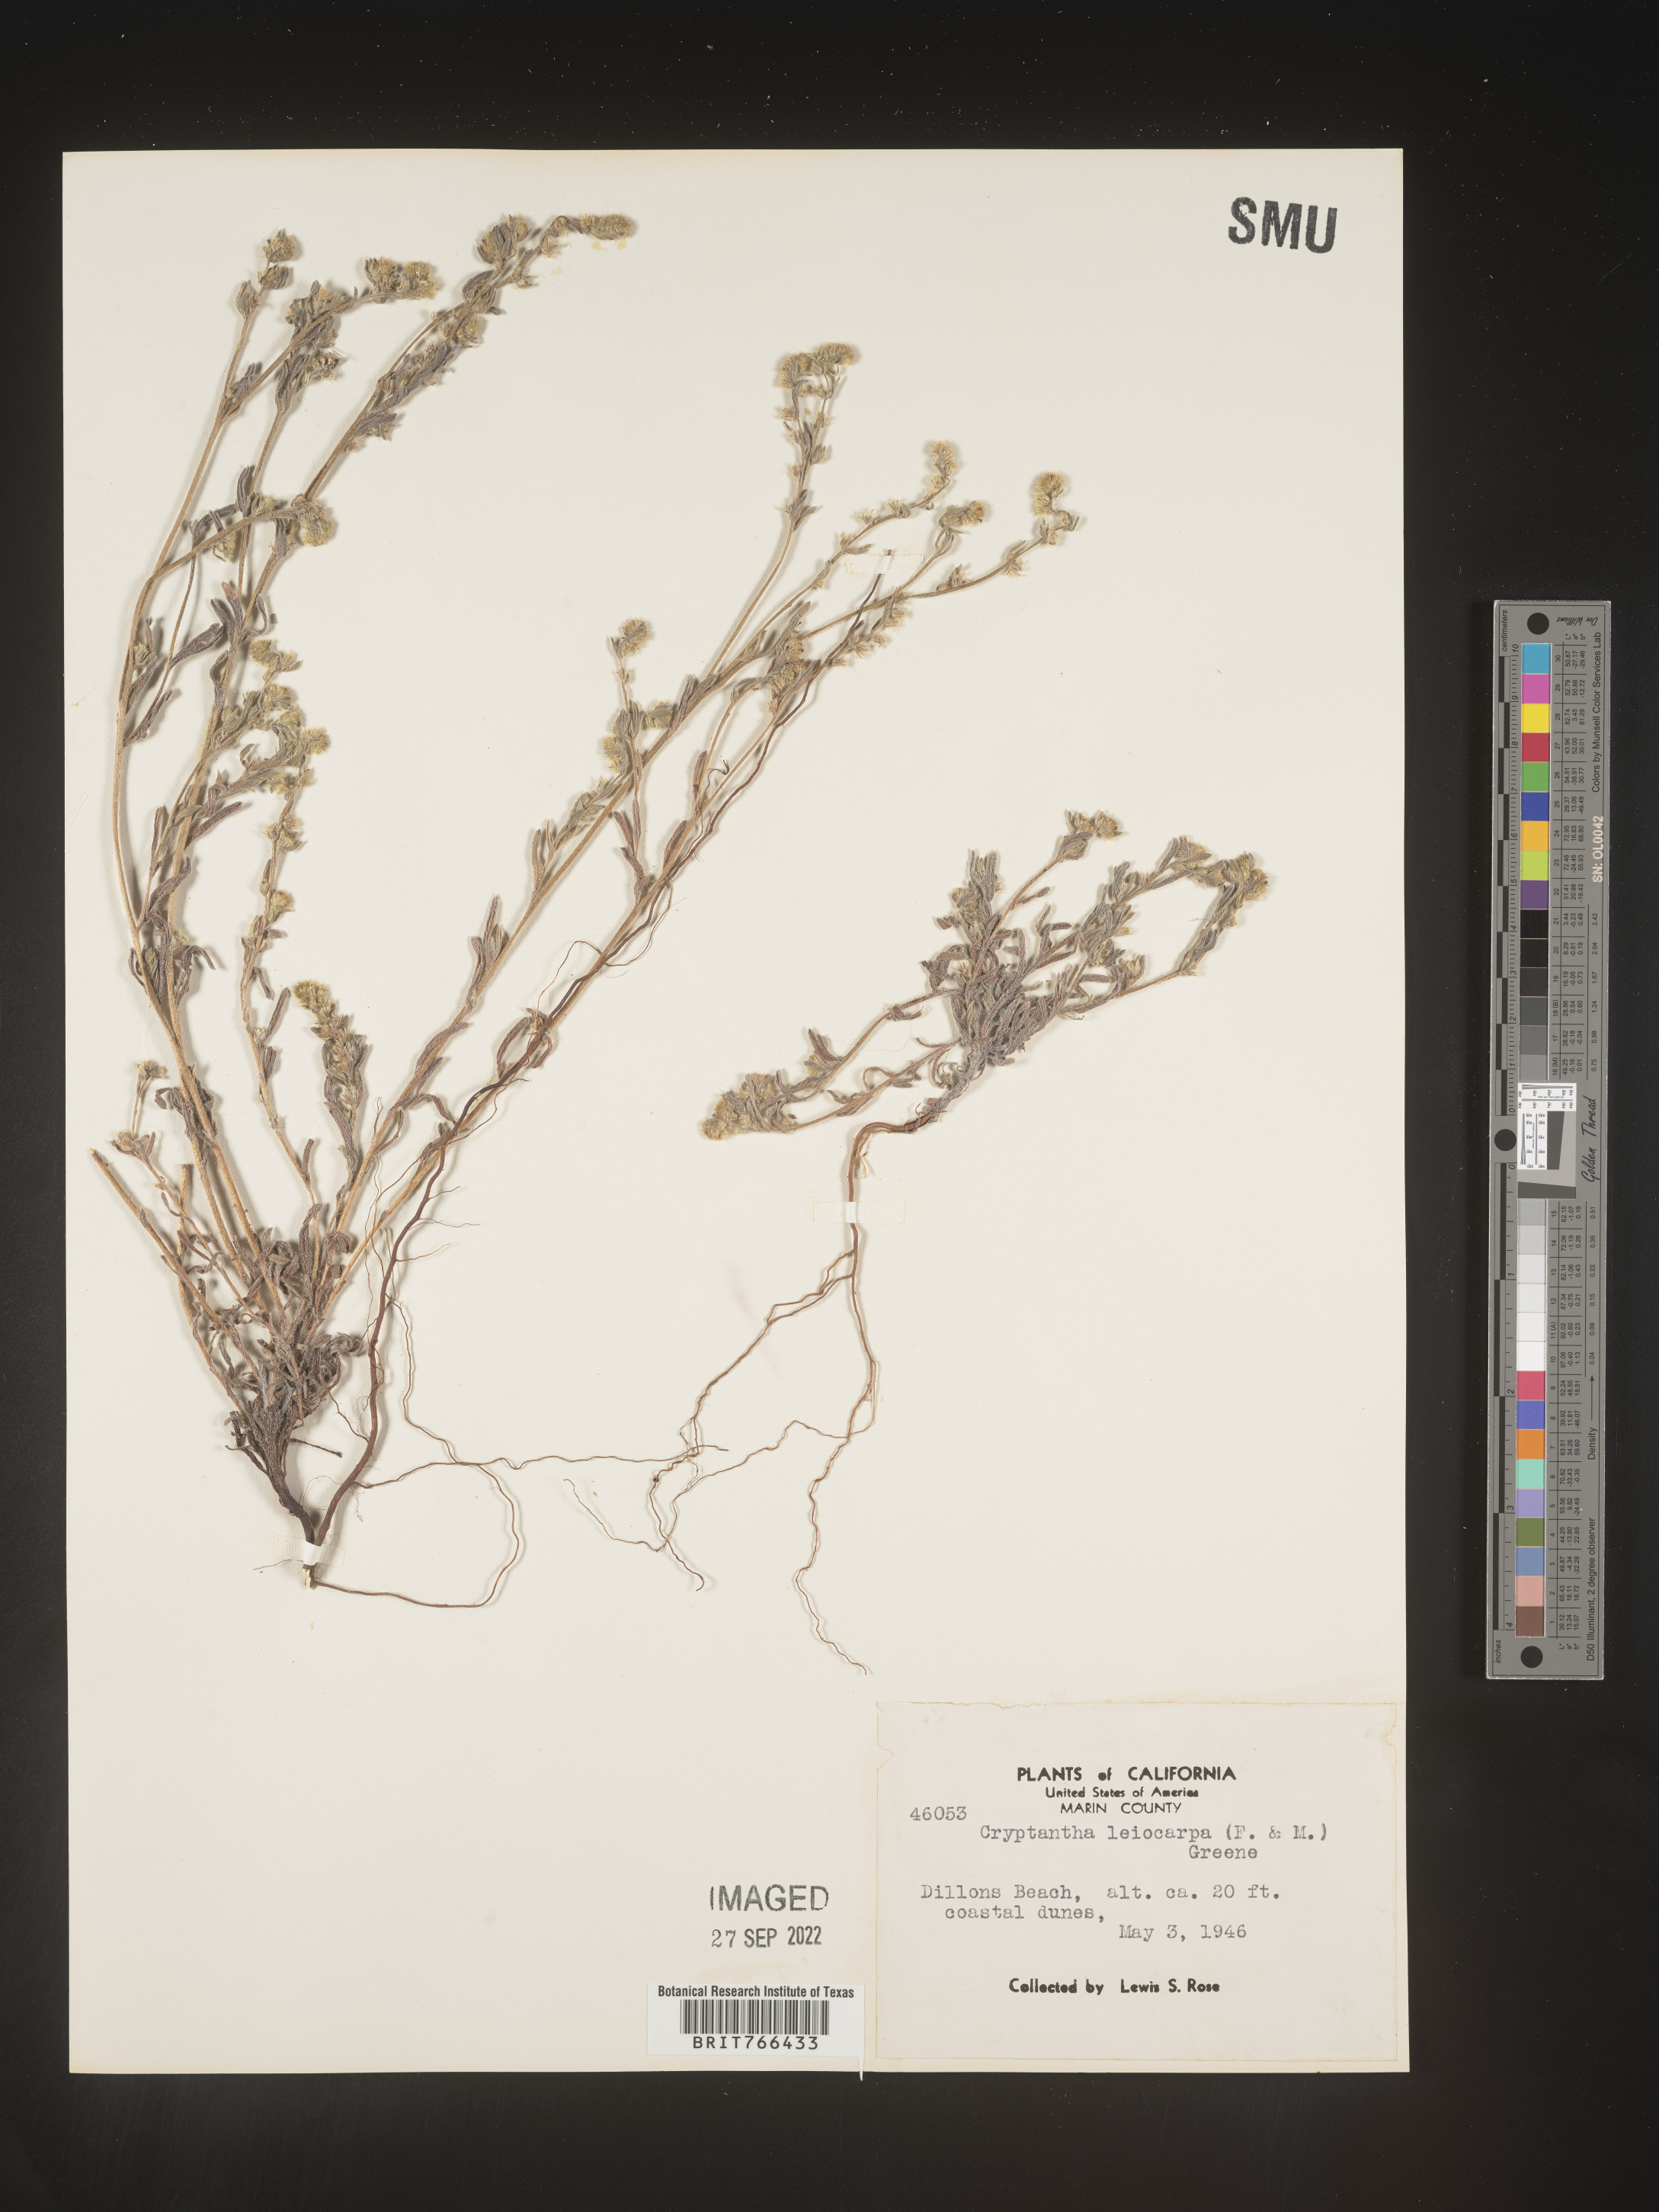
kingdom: Plantae
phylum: Tracheophyta
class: Magnoliopsida
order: Boraginales
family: Boraginaceae
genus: Cryptantha
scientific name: Cryptantha
